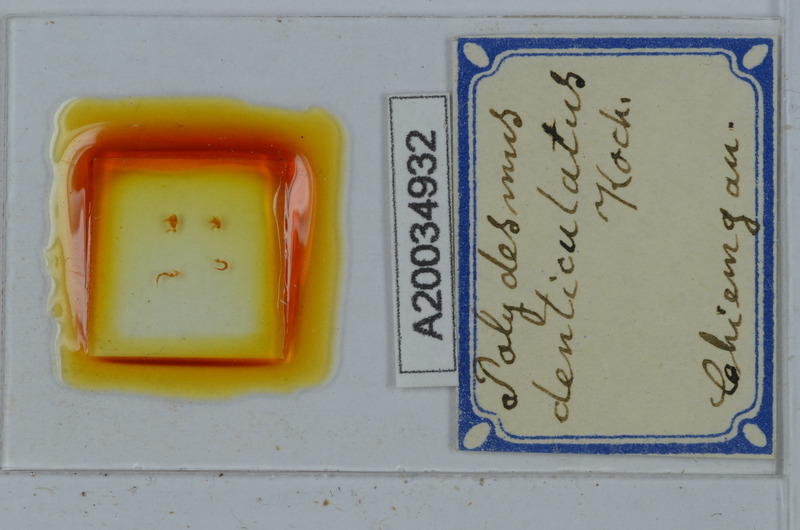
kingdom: Animalia
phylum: Arthropoda
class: Diplopoda
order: Polydesmida
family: Polydesmidae
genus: Polydesmus
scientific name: Polydesmus denticulatus
